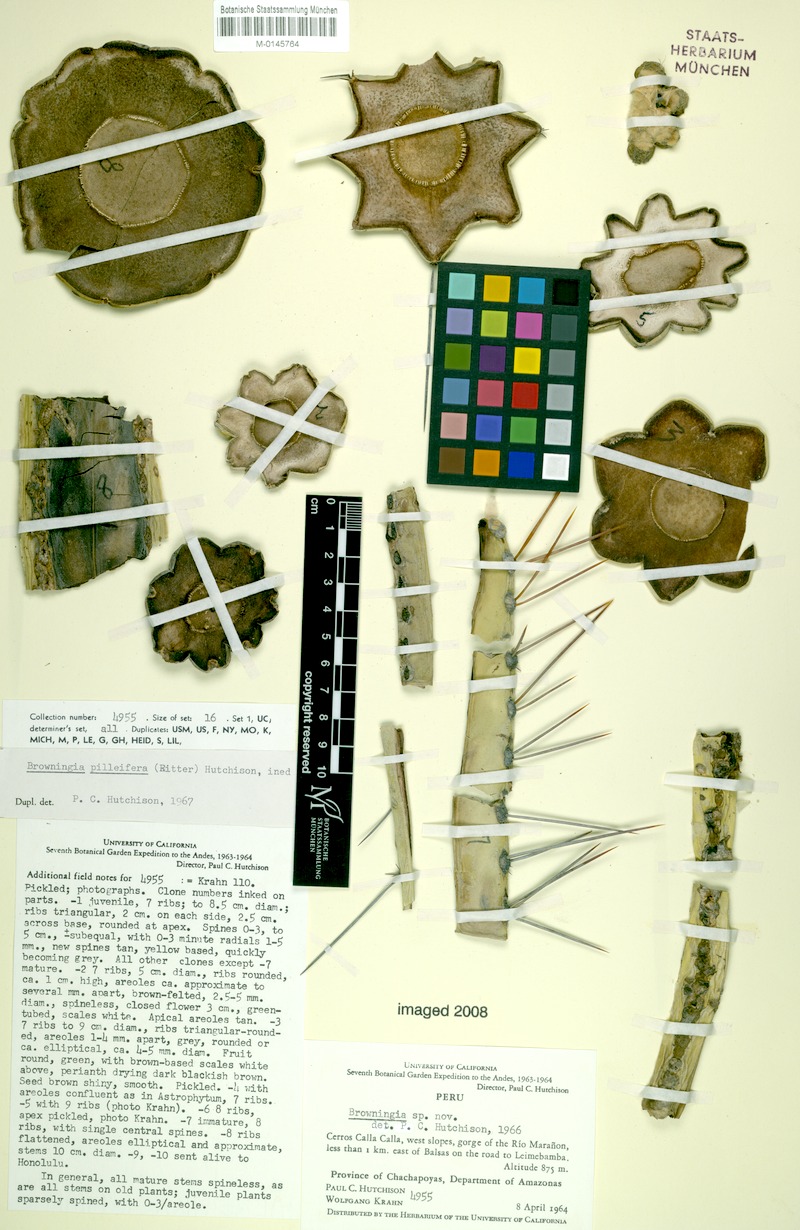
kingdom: Plantae
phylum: Tracheophyta
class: Magnoliopsida
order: Caryophyllales
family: Cactaceae
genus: Browningia
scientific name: Browningia pilleifera
